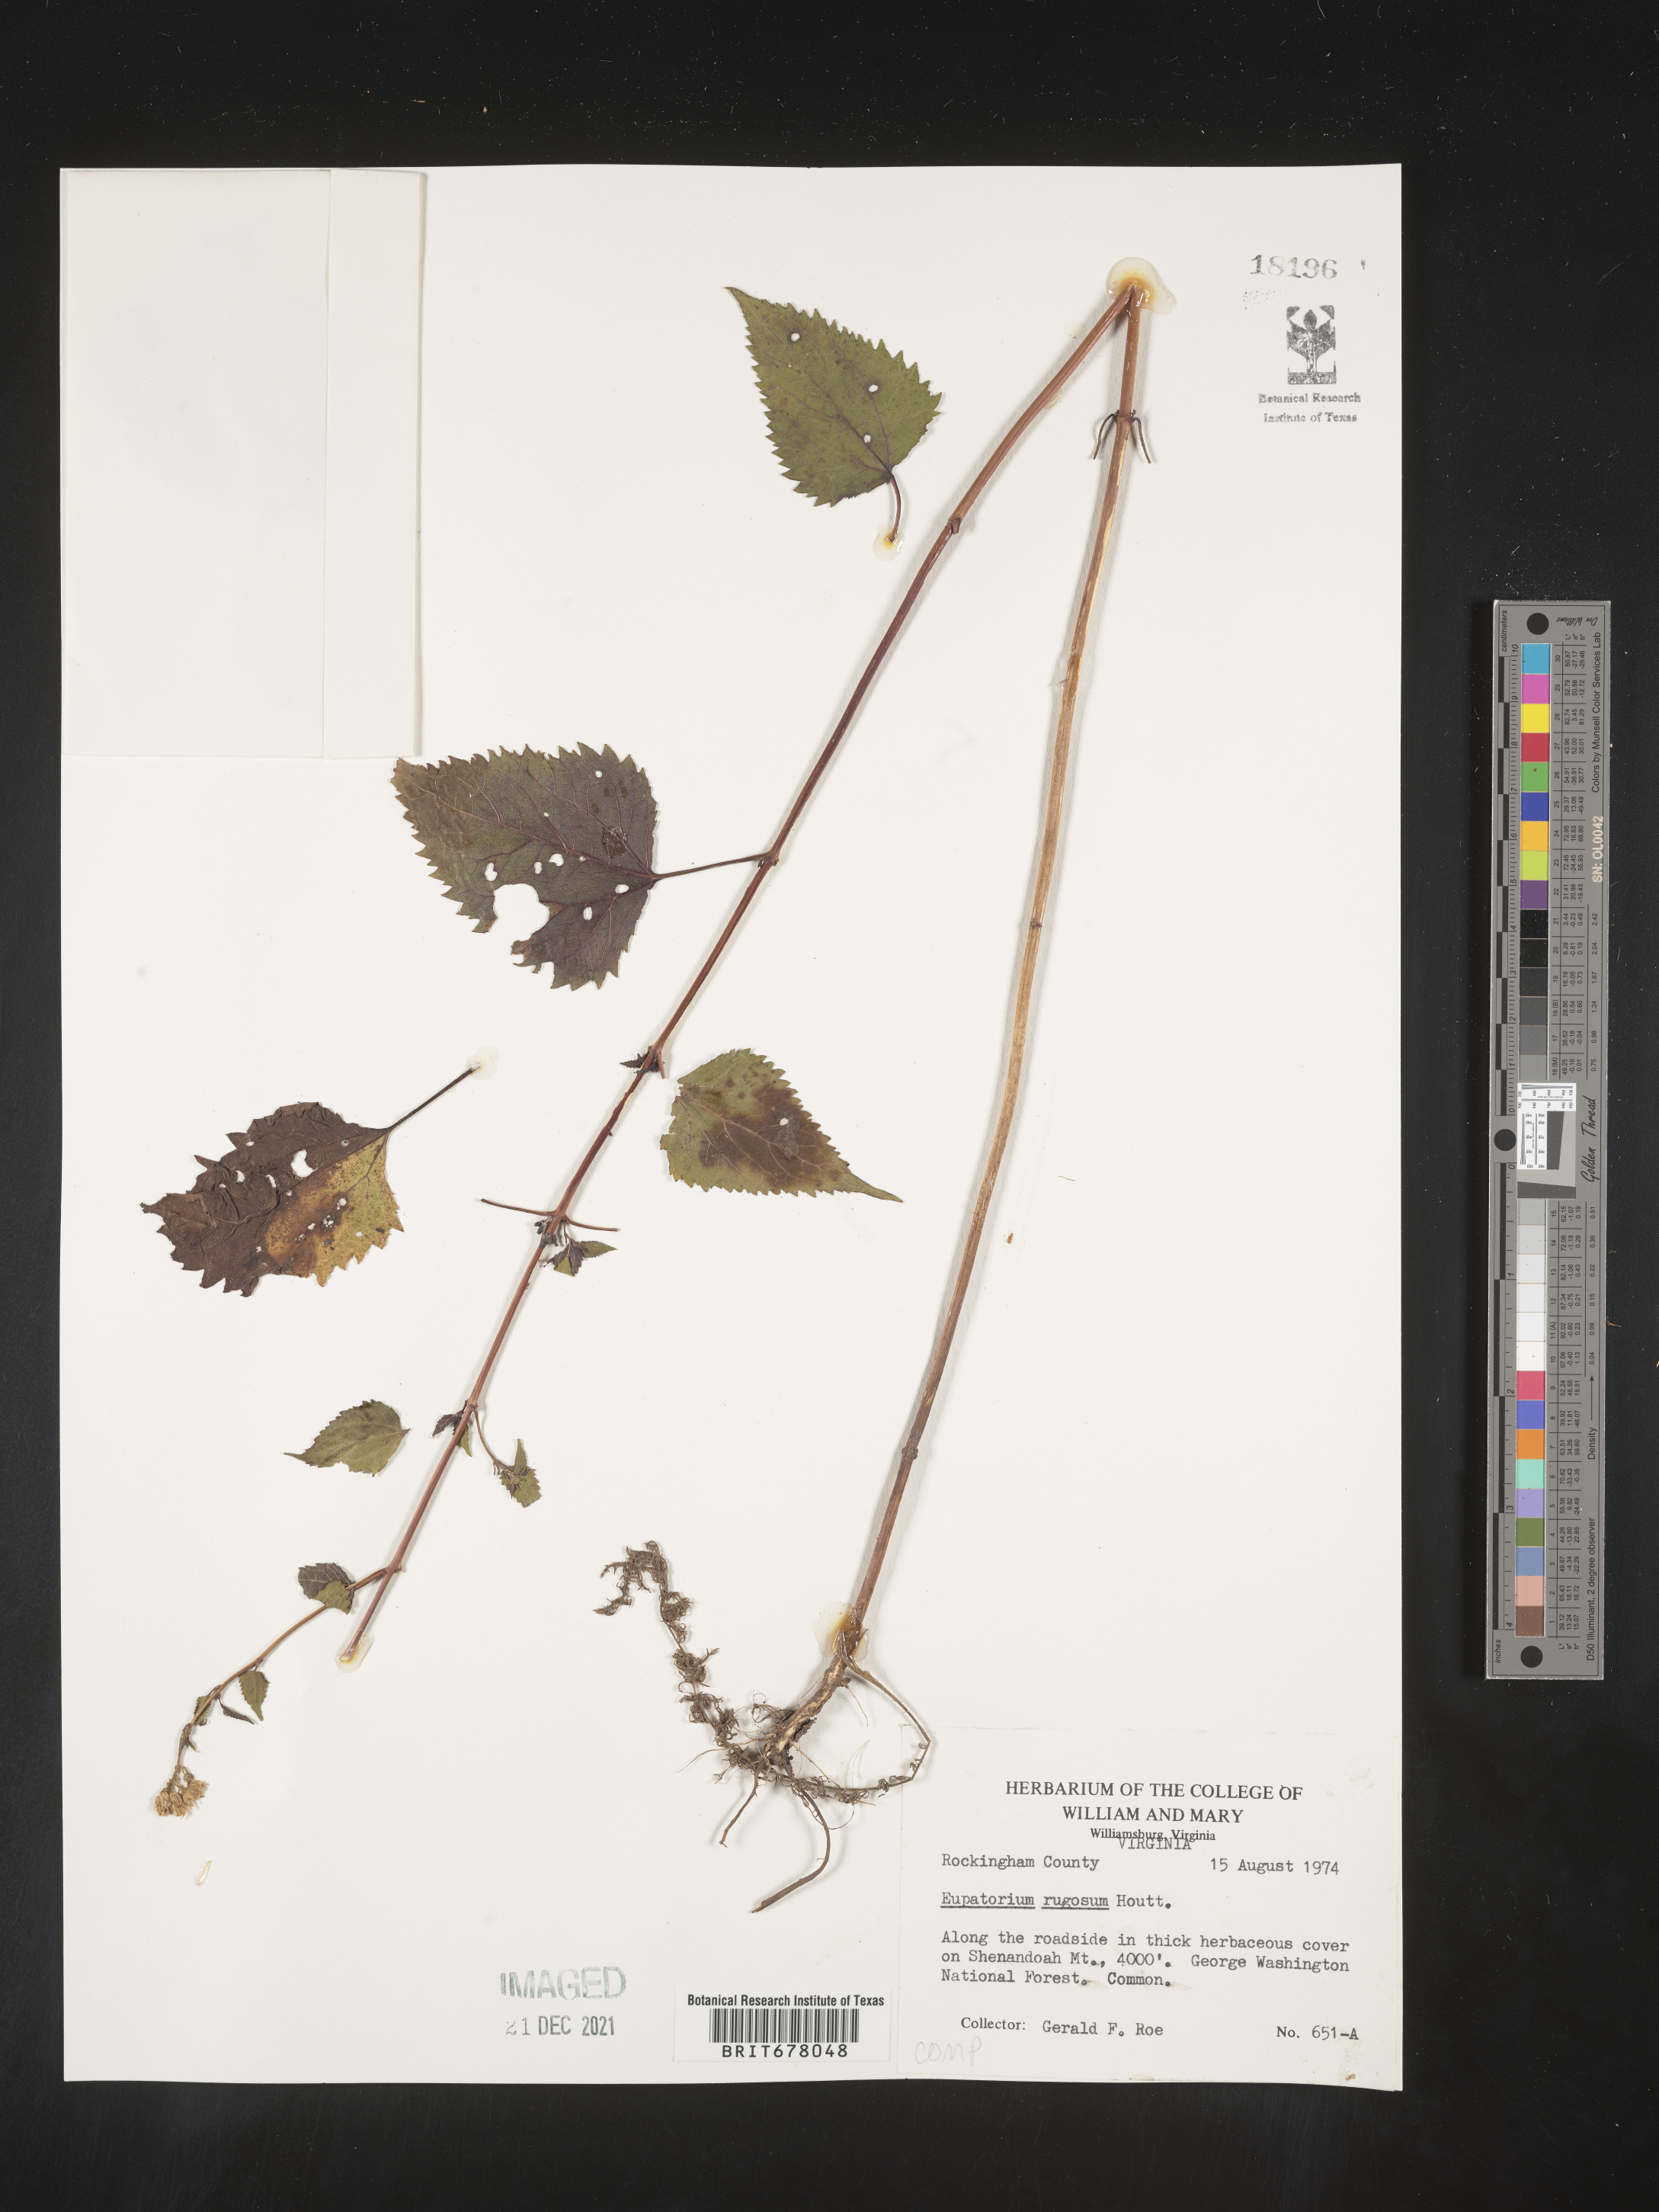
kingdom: Plantae
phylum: Tracheophyta
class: Magnoliopsida
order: Asterales
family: Asteraceae
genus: Eupatorium
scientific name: Eupatorium
